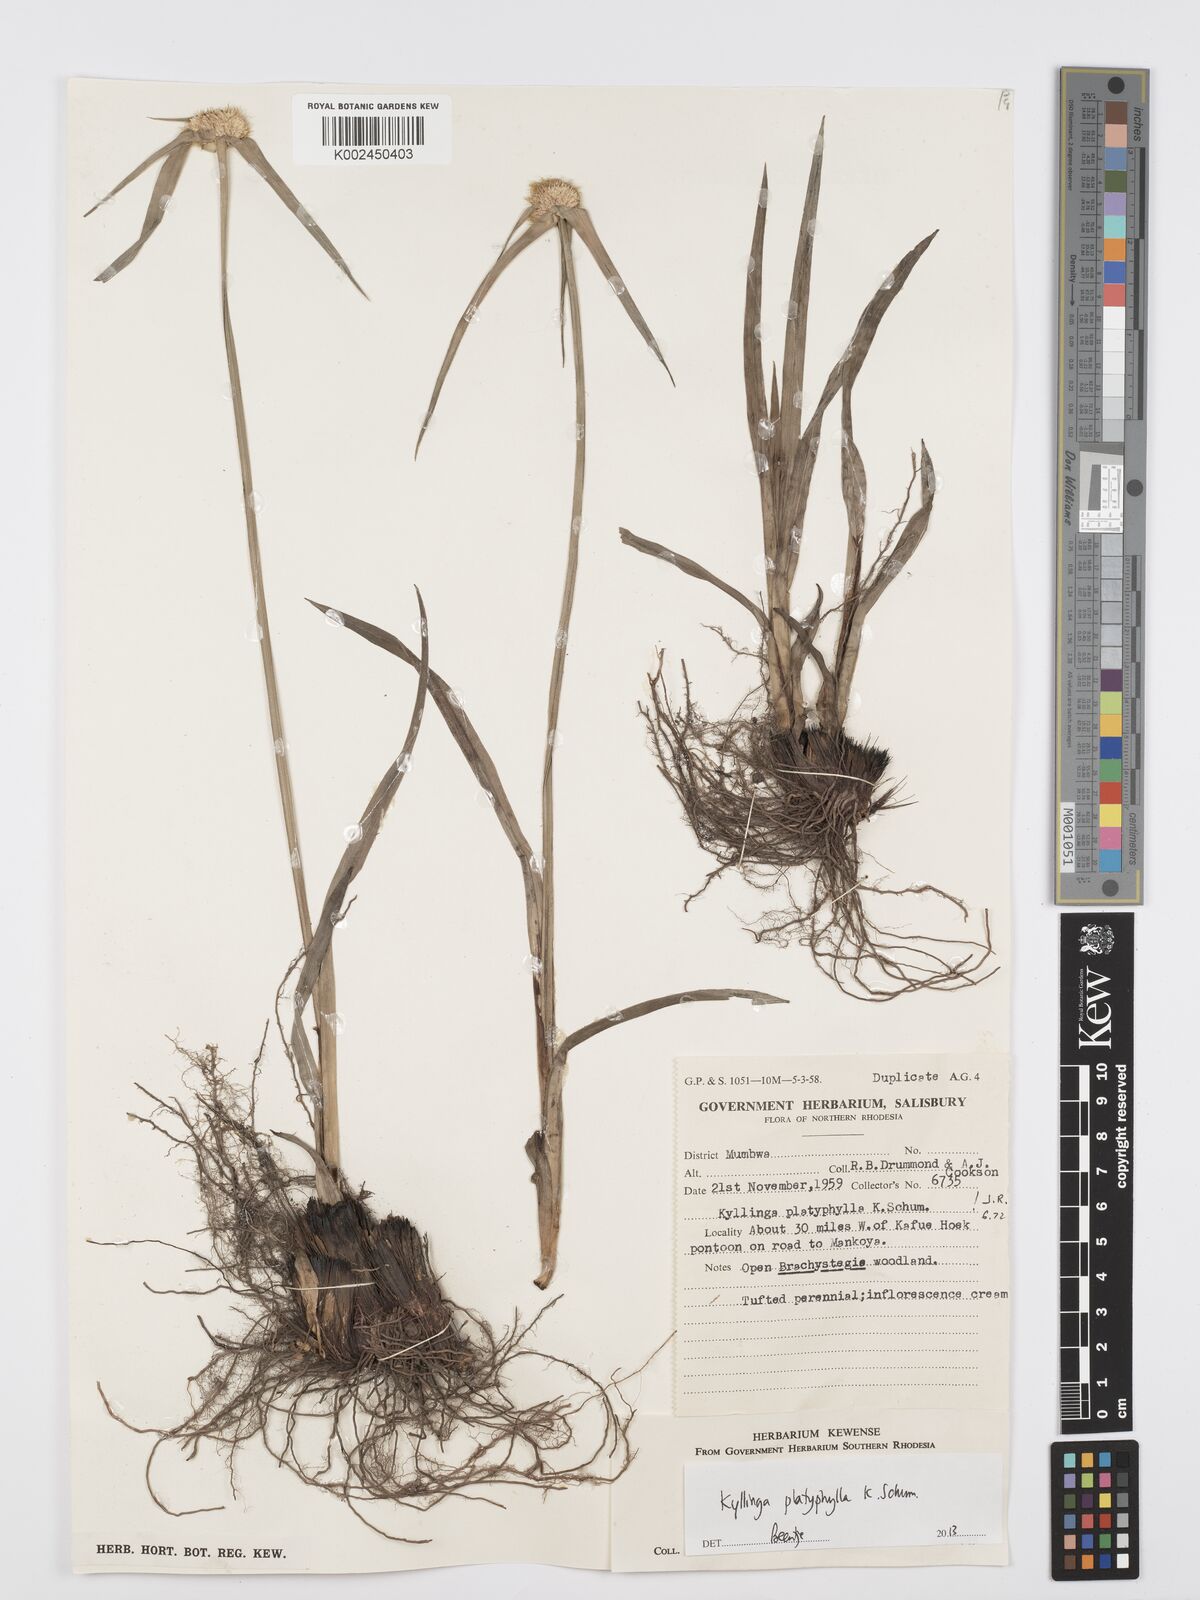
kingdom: Plantae
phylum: Tracheophyta
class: Liliopsida
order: Poales
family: Cyperaceae
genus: Cyperus
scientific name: Cyperus
